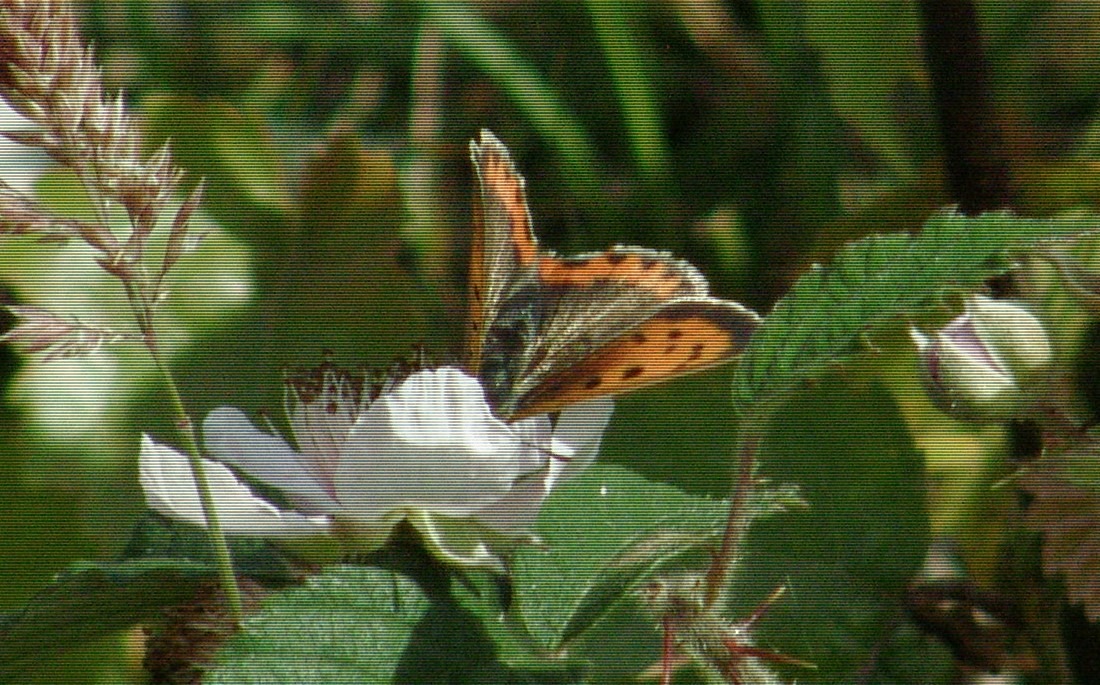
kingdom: Animalia
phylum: Arthropoda
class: Insecta
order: Lepidoptera
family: Lycaenidae
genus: Lycaena
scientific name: Lycaena phlaeas
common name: Lille ildfugl
